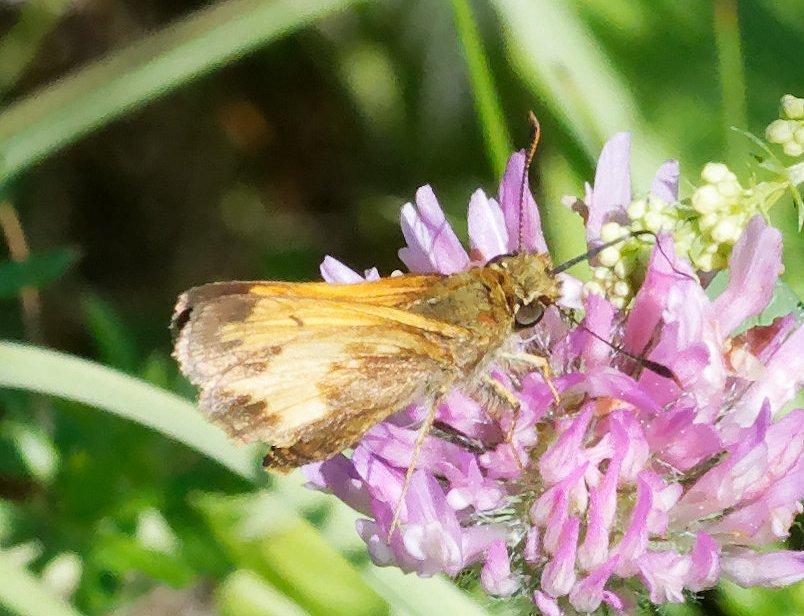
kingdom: Animalia
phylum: Arthropoda
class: Insecta
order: Lepidoptera
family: Hesperiidae
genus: Lon
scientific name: Lon hobomok
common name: Hobomok Skipper
